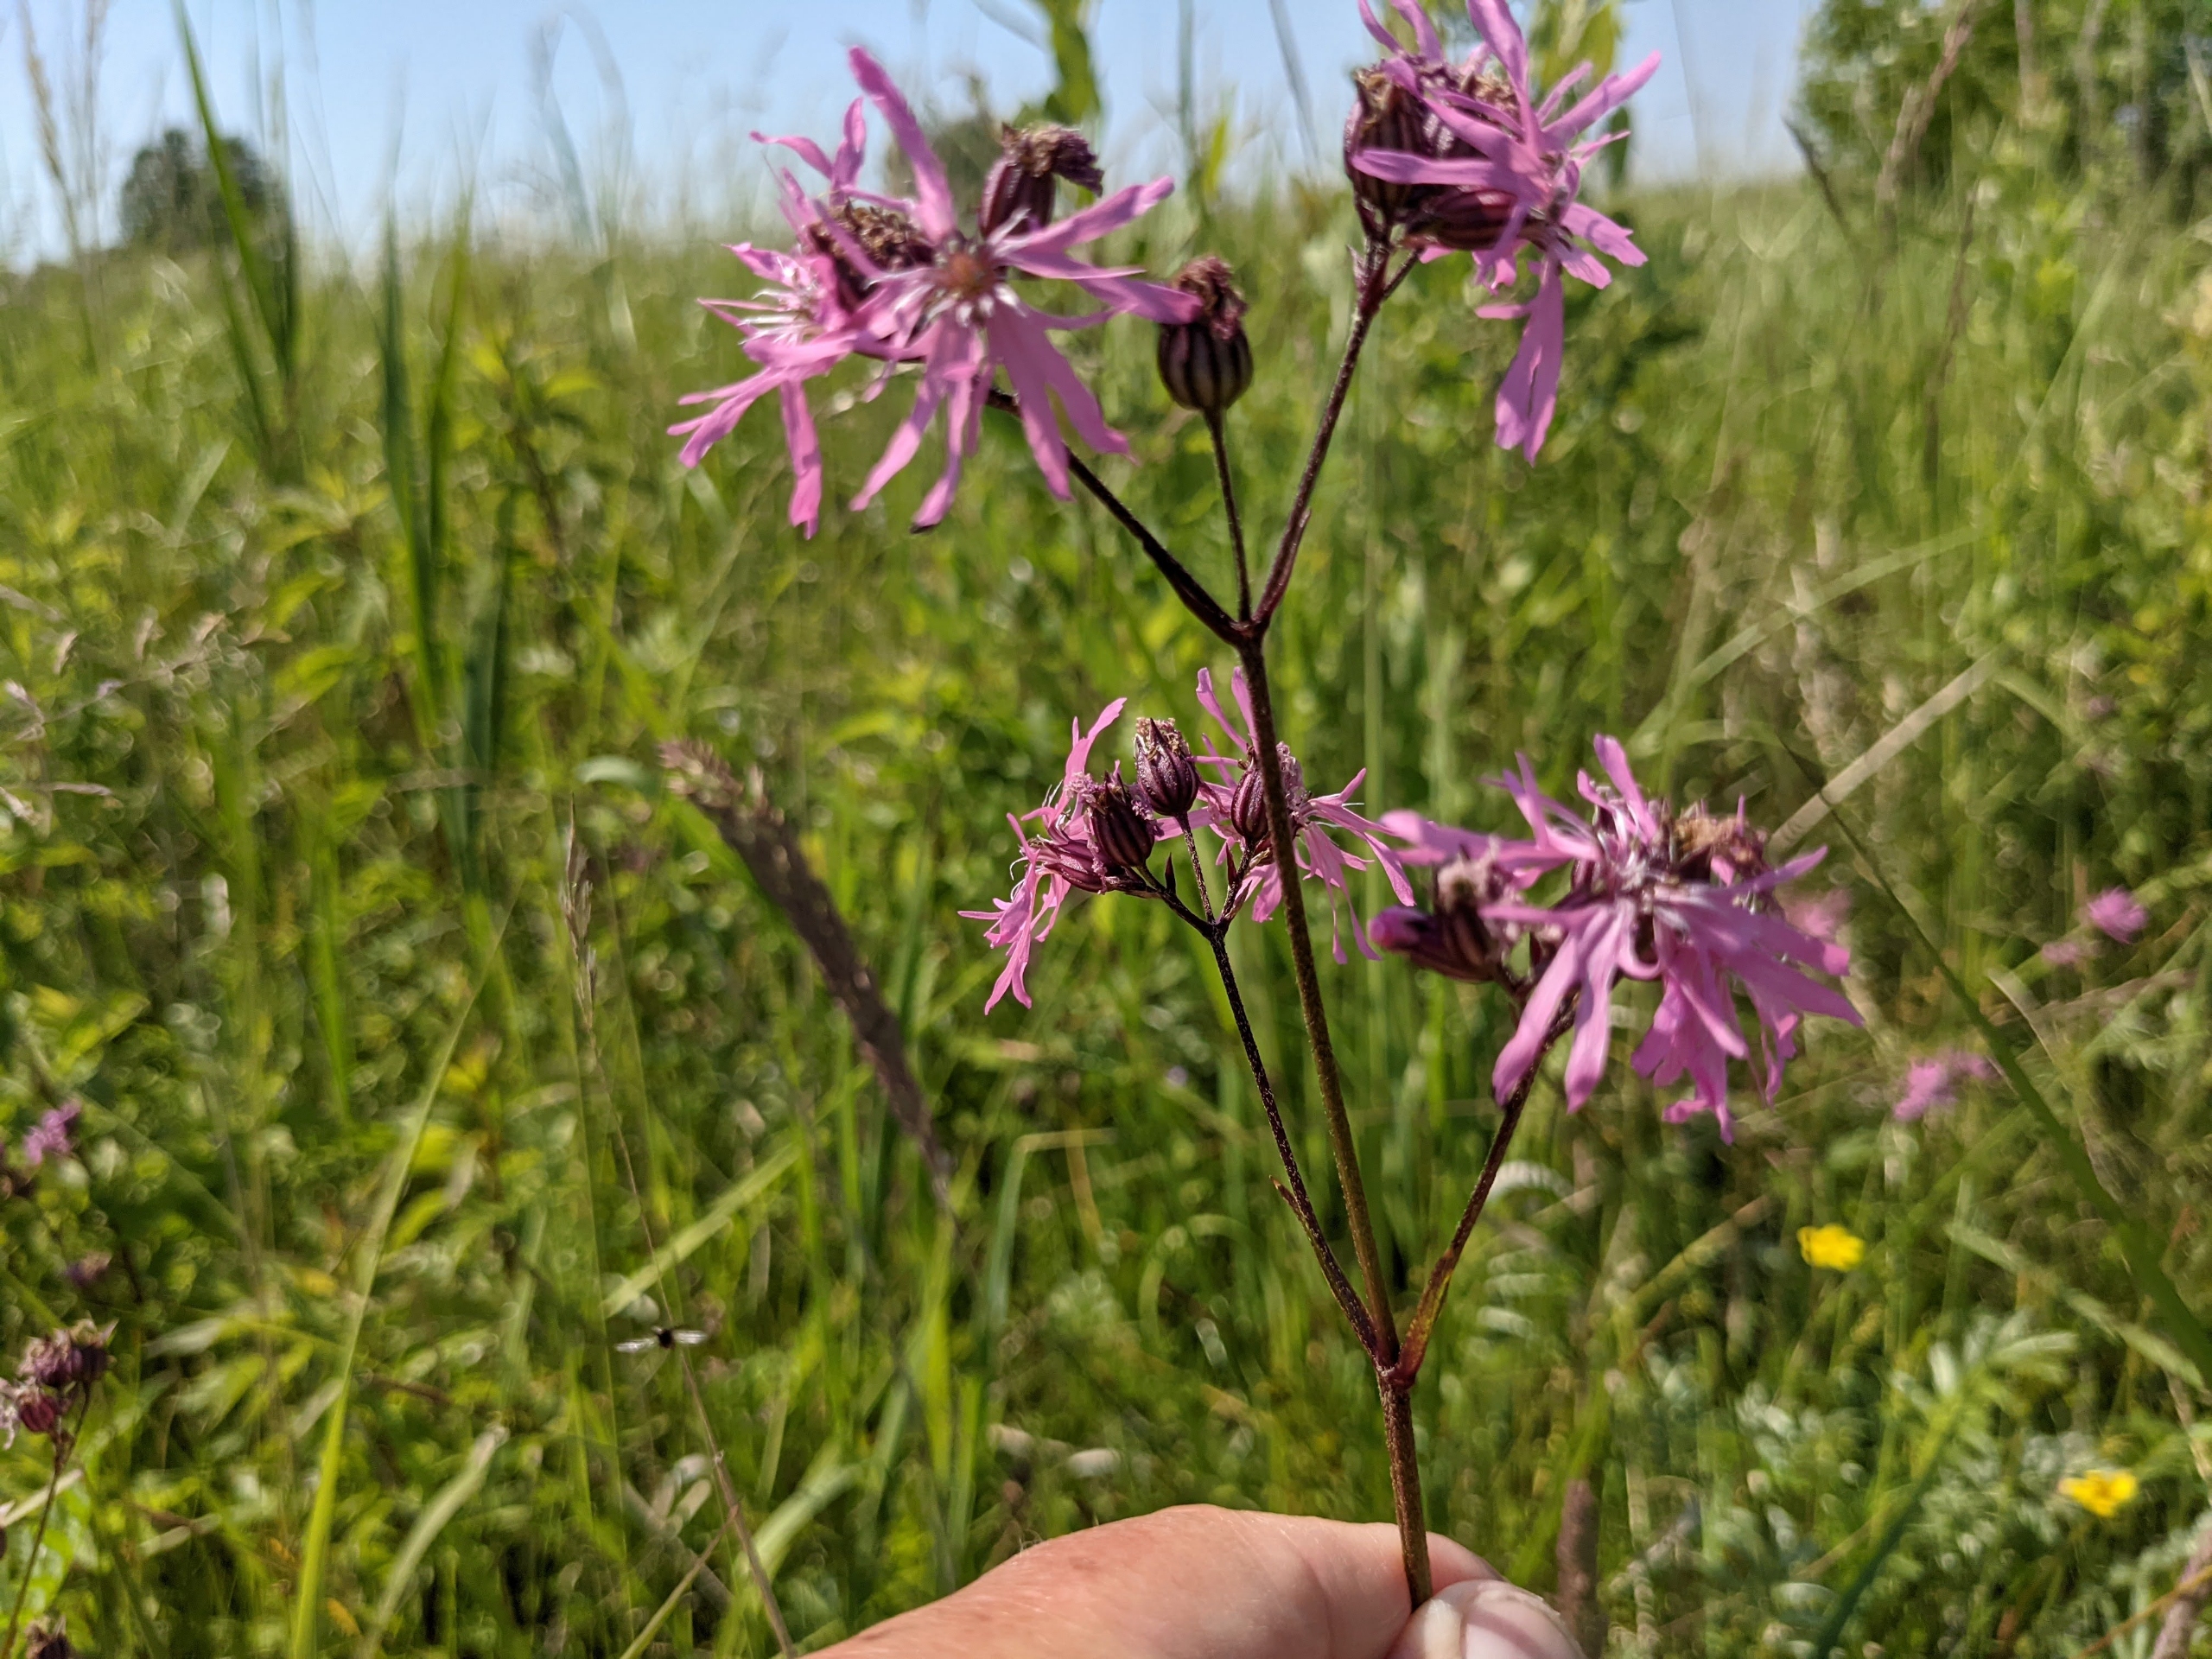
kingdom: Plantae
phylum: Tracheophyta
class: Magnoliopsida
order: Caryophyllales
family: Caryophyllaceae
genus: Silene
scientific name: Silene flos-cuculi
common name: Trævlekrone
